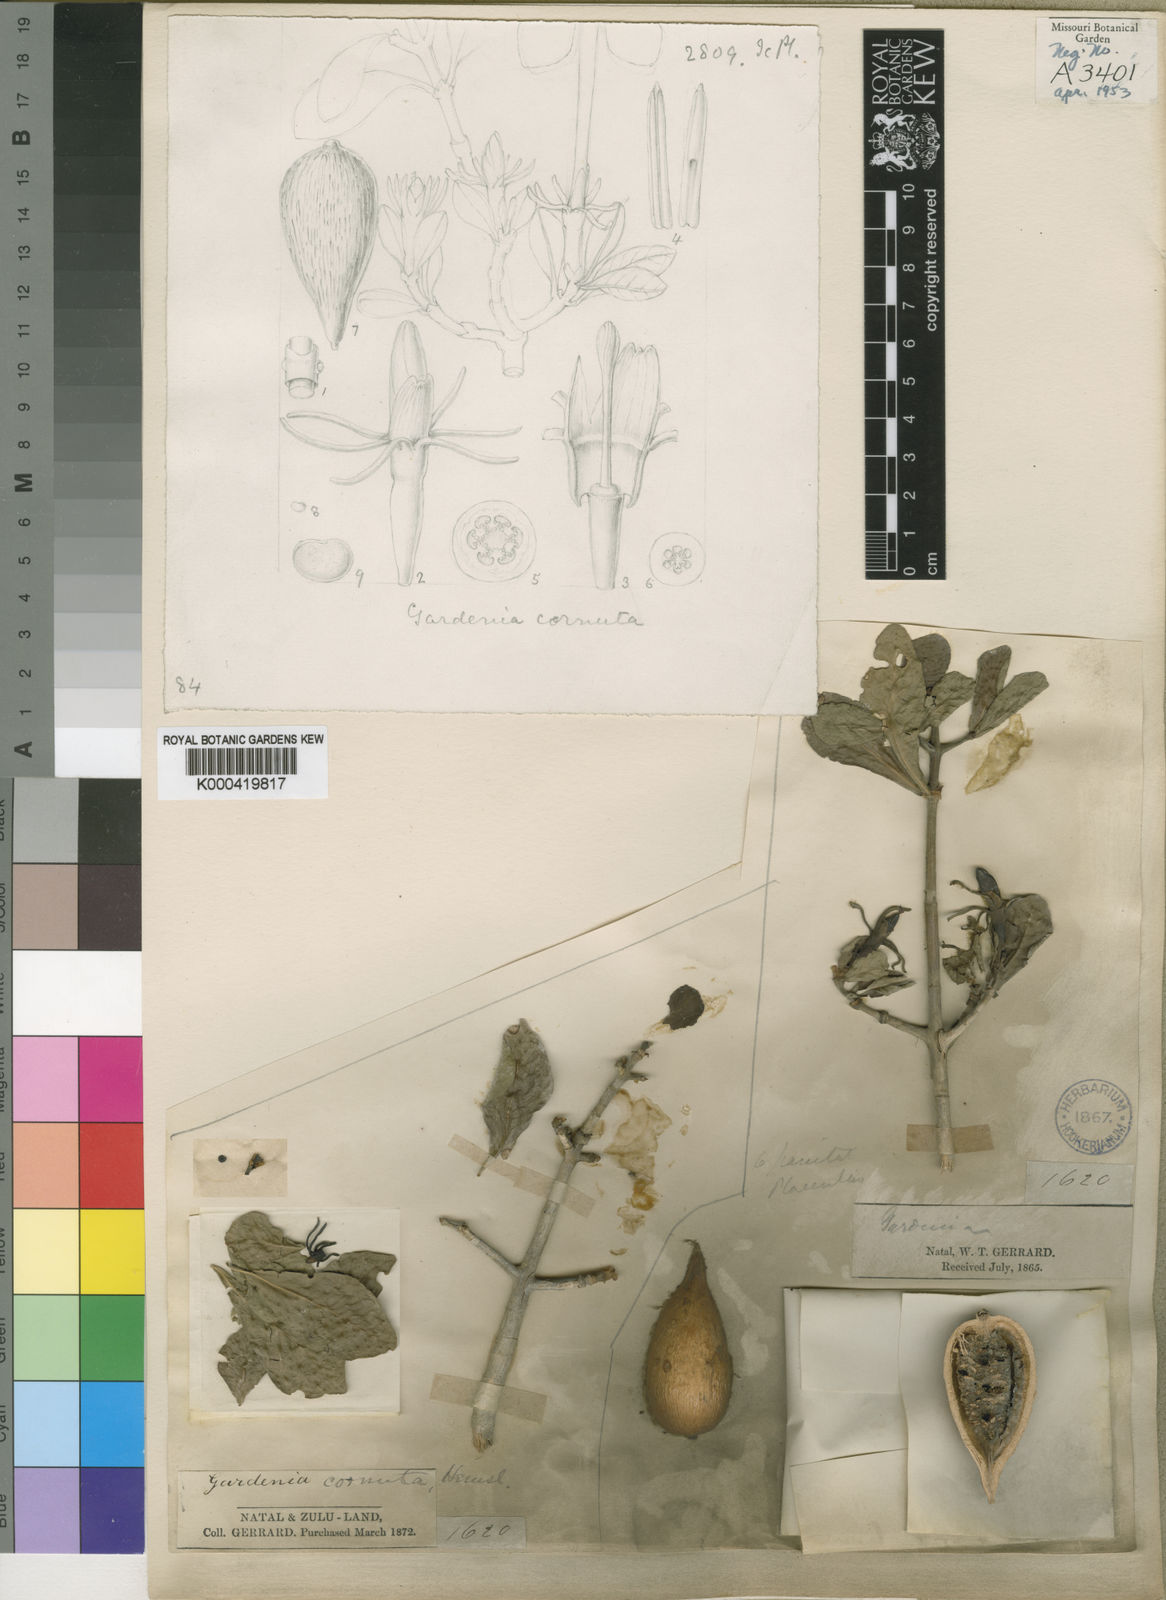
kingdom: Plantae
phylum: Tracheophyta
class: Magnoliopsida
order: Gentianales
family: Rubiaceae
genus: Gardenia
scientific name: Gardenia cornuta
